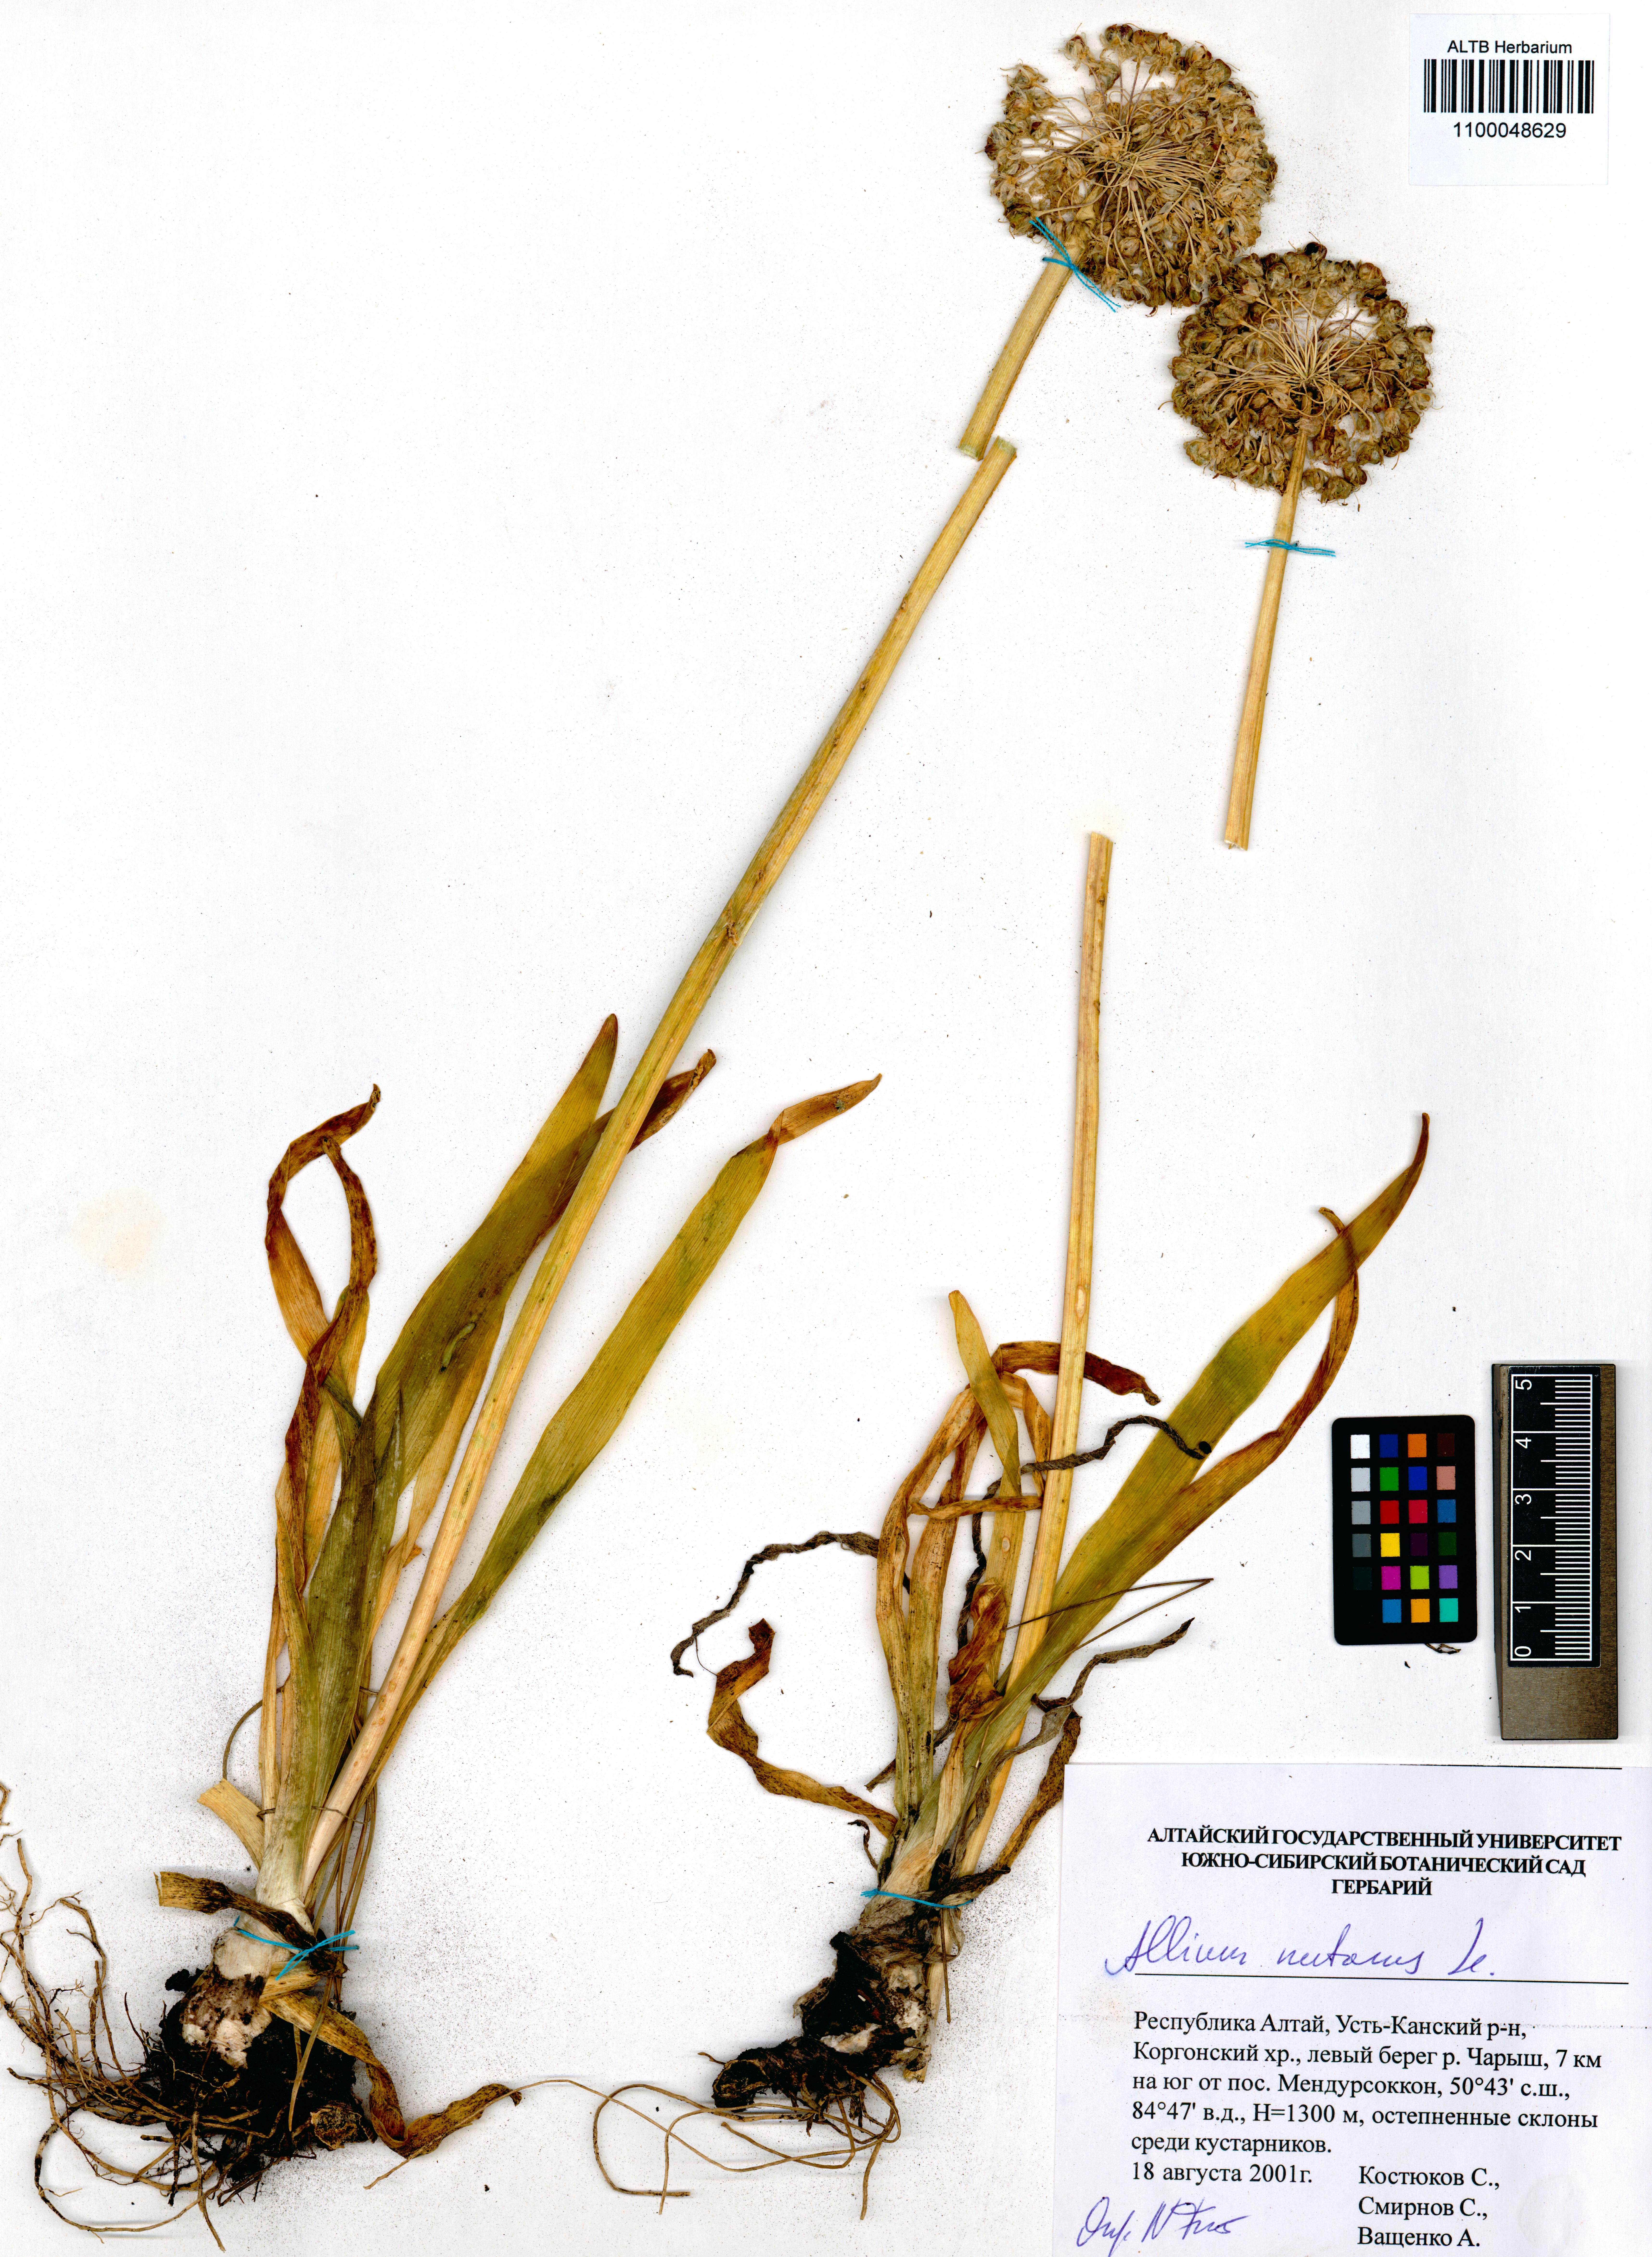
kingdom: Plantae
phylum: Tracheophyta
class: Liliopsida
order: Asparagales
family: Amaryllidaceae
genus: Allium
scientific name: Allium nutans
